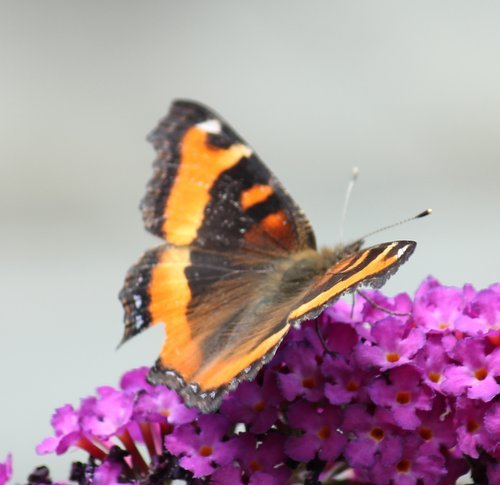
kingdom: Animalia
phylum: Arthropoda
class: Insecta
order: Lepidoptera
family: Nymphalidae
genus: Aglais
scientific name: Aglais milberti
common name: Milbert's Tortoiseshell
